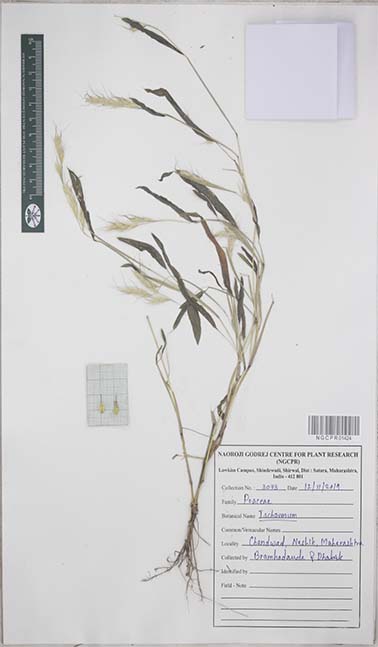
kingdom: Plantae
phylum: Tracheophyta
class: Liliopsida
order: Poales
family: Poaceae
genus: Ischaemum
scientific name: Ischaemum
